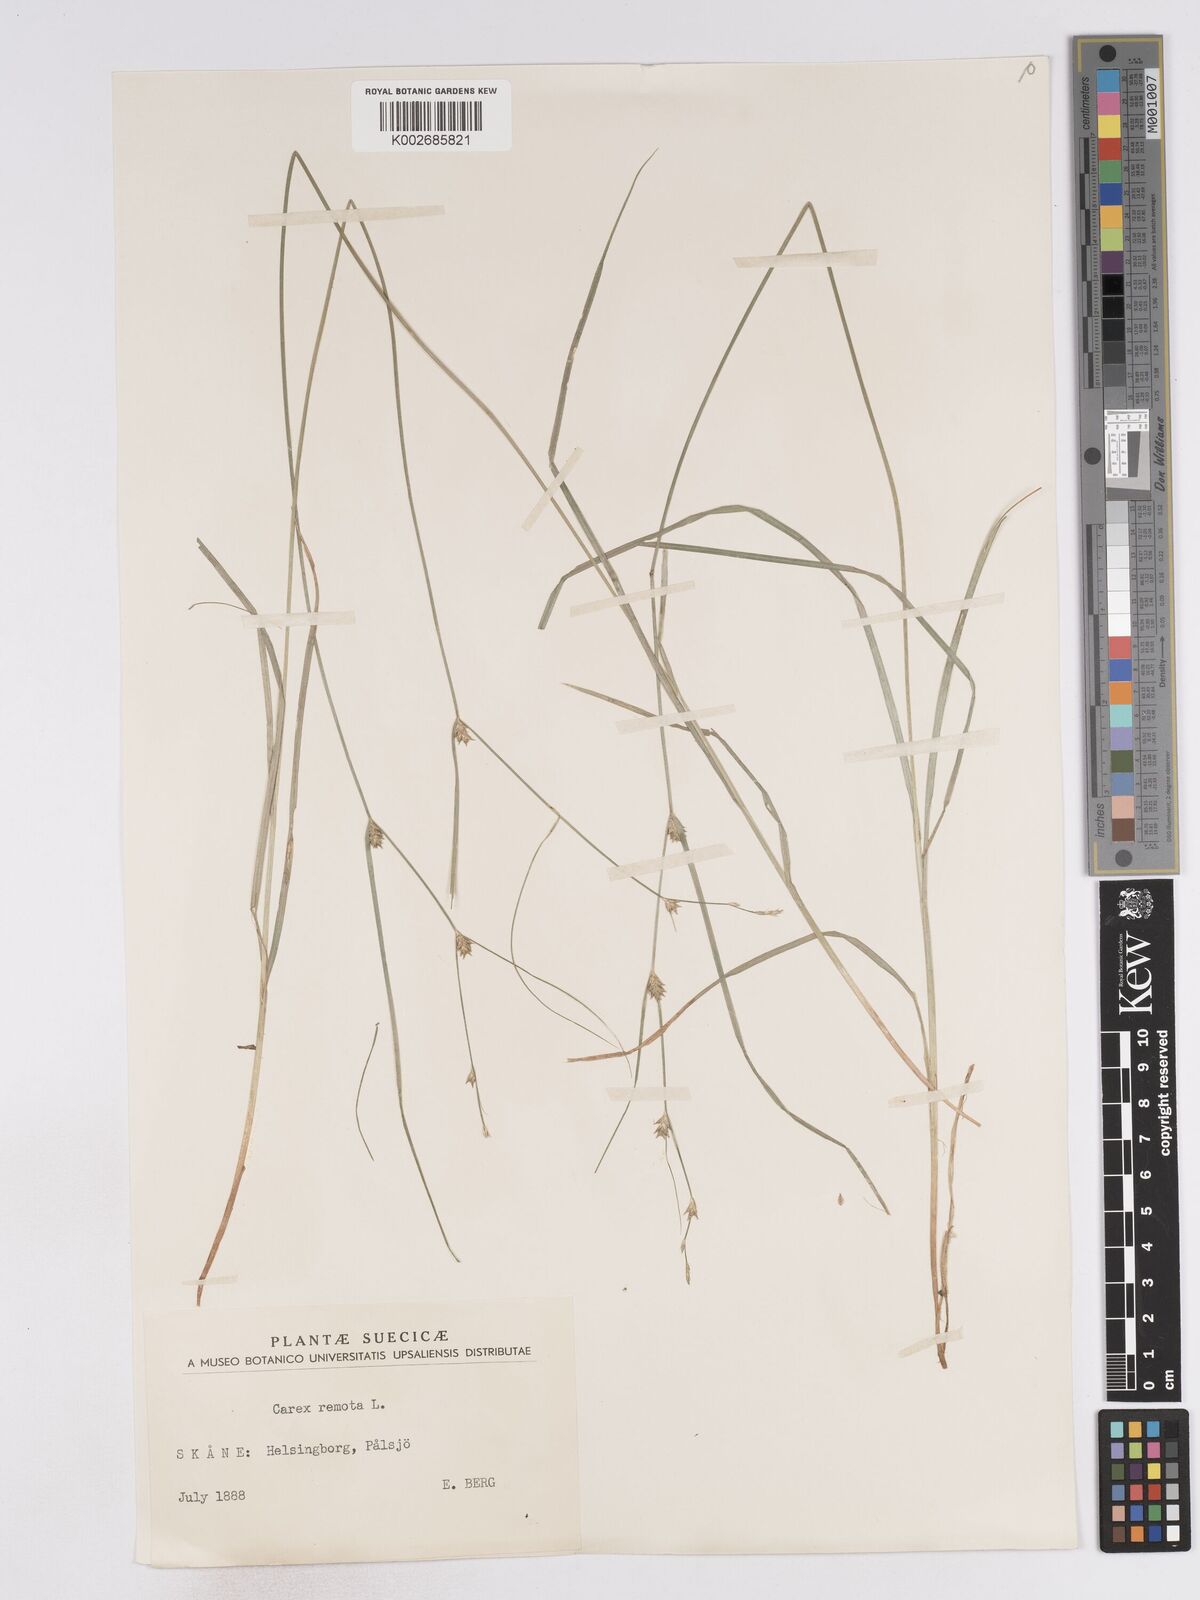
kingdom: Plantae
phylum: Tracheophyta
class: Liliopsida
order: Poales
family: Cyperaceae
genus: Carex
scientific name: Carex remota
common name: Remote sedge
